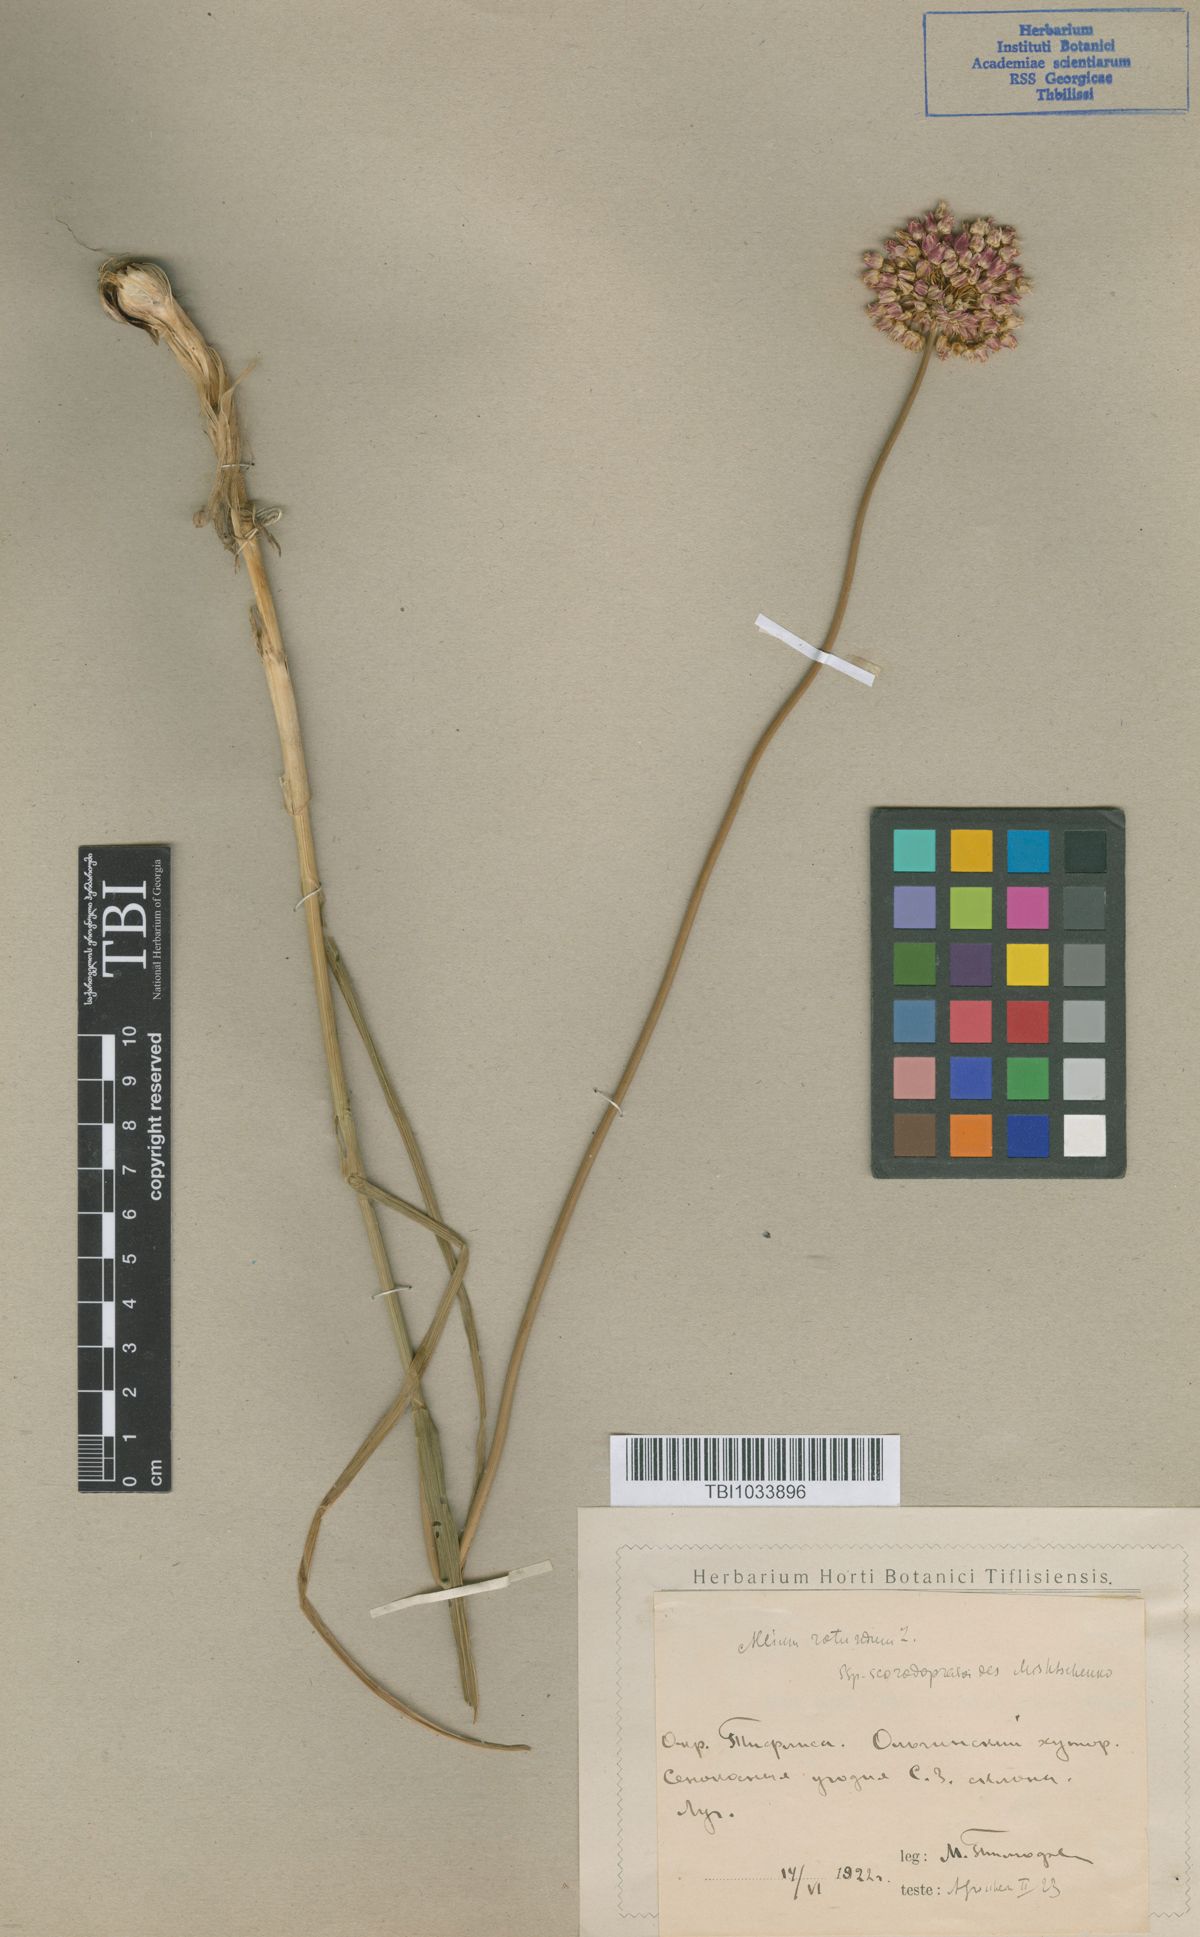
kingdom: Plantae
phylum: Tracheophyta
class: Liliopsida
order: Asparagales
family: Amaryllidaceae
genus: Allium
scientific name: Allium rotundum
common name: Sand leek
